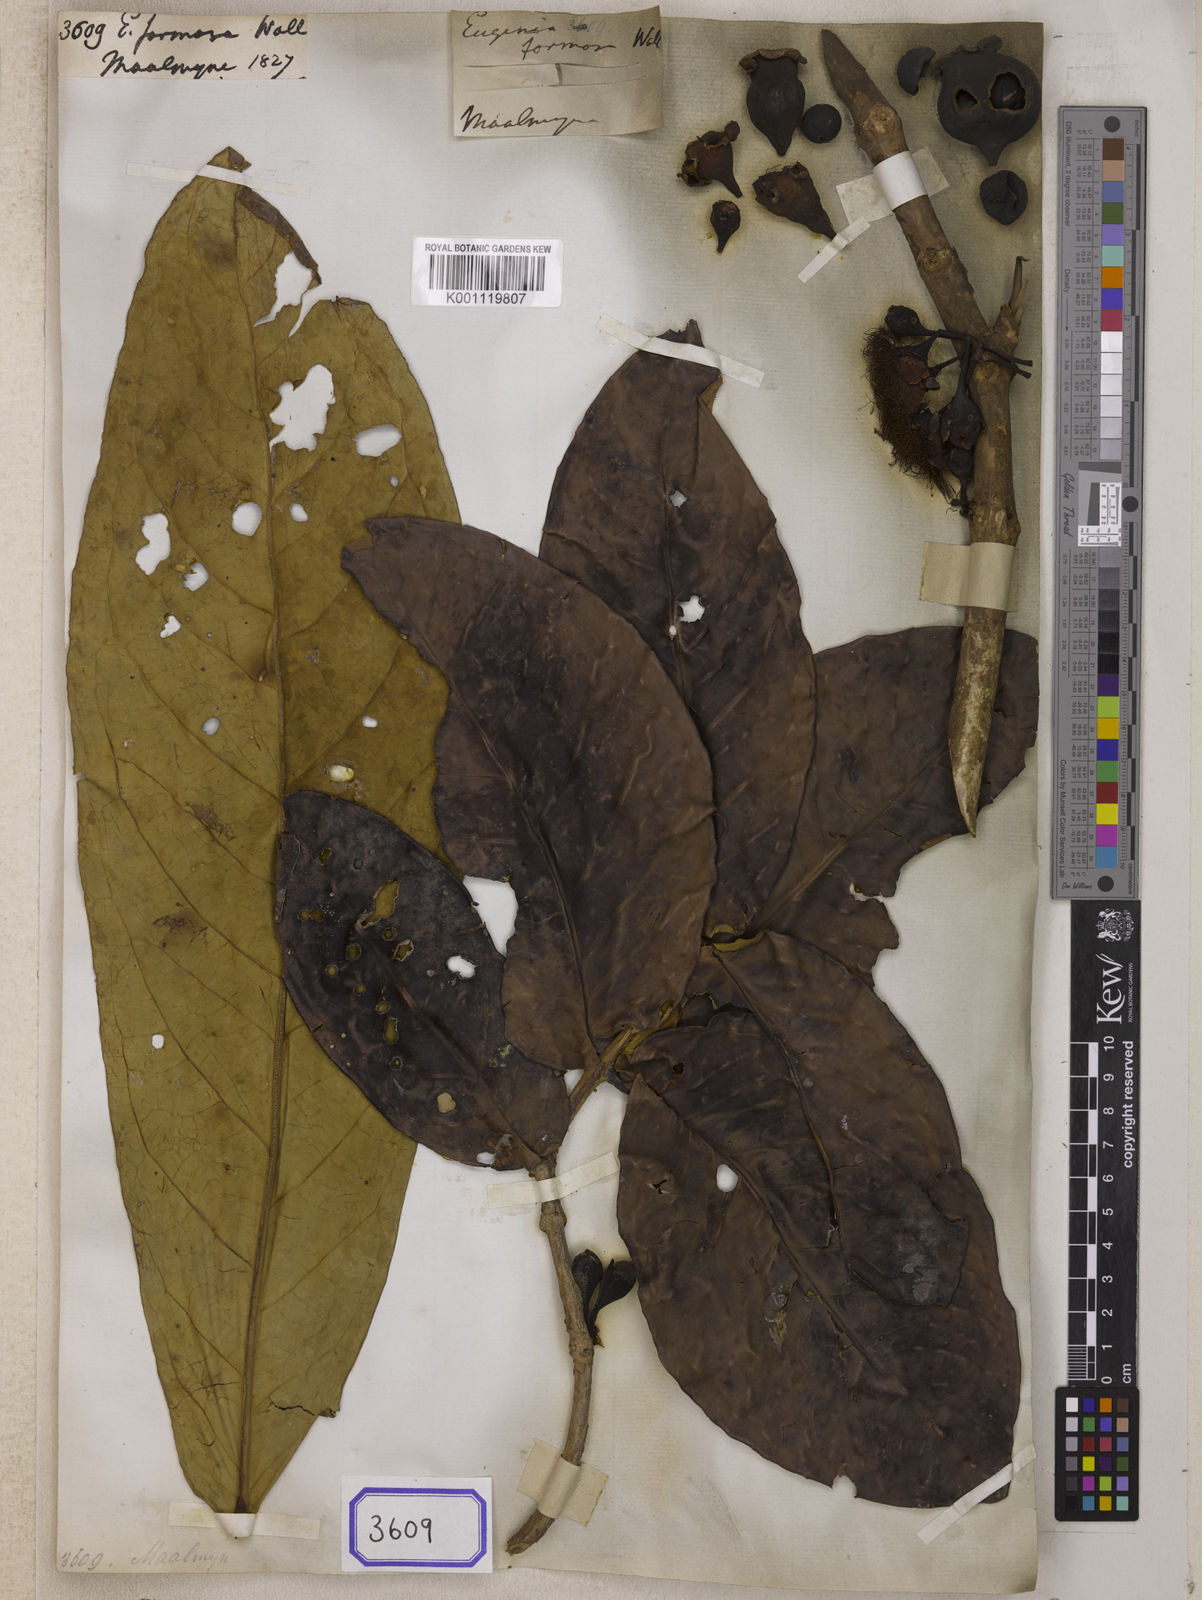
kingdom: Plantae
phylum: Tracheophyta
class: Magnoliopsida
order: Myrtales
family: Myrtaceae
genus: Syzygium
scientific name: Syzygium formosum
